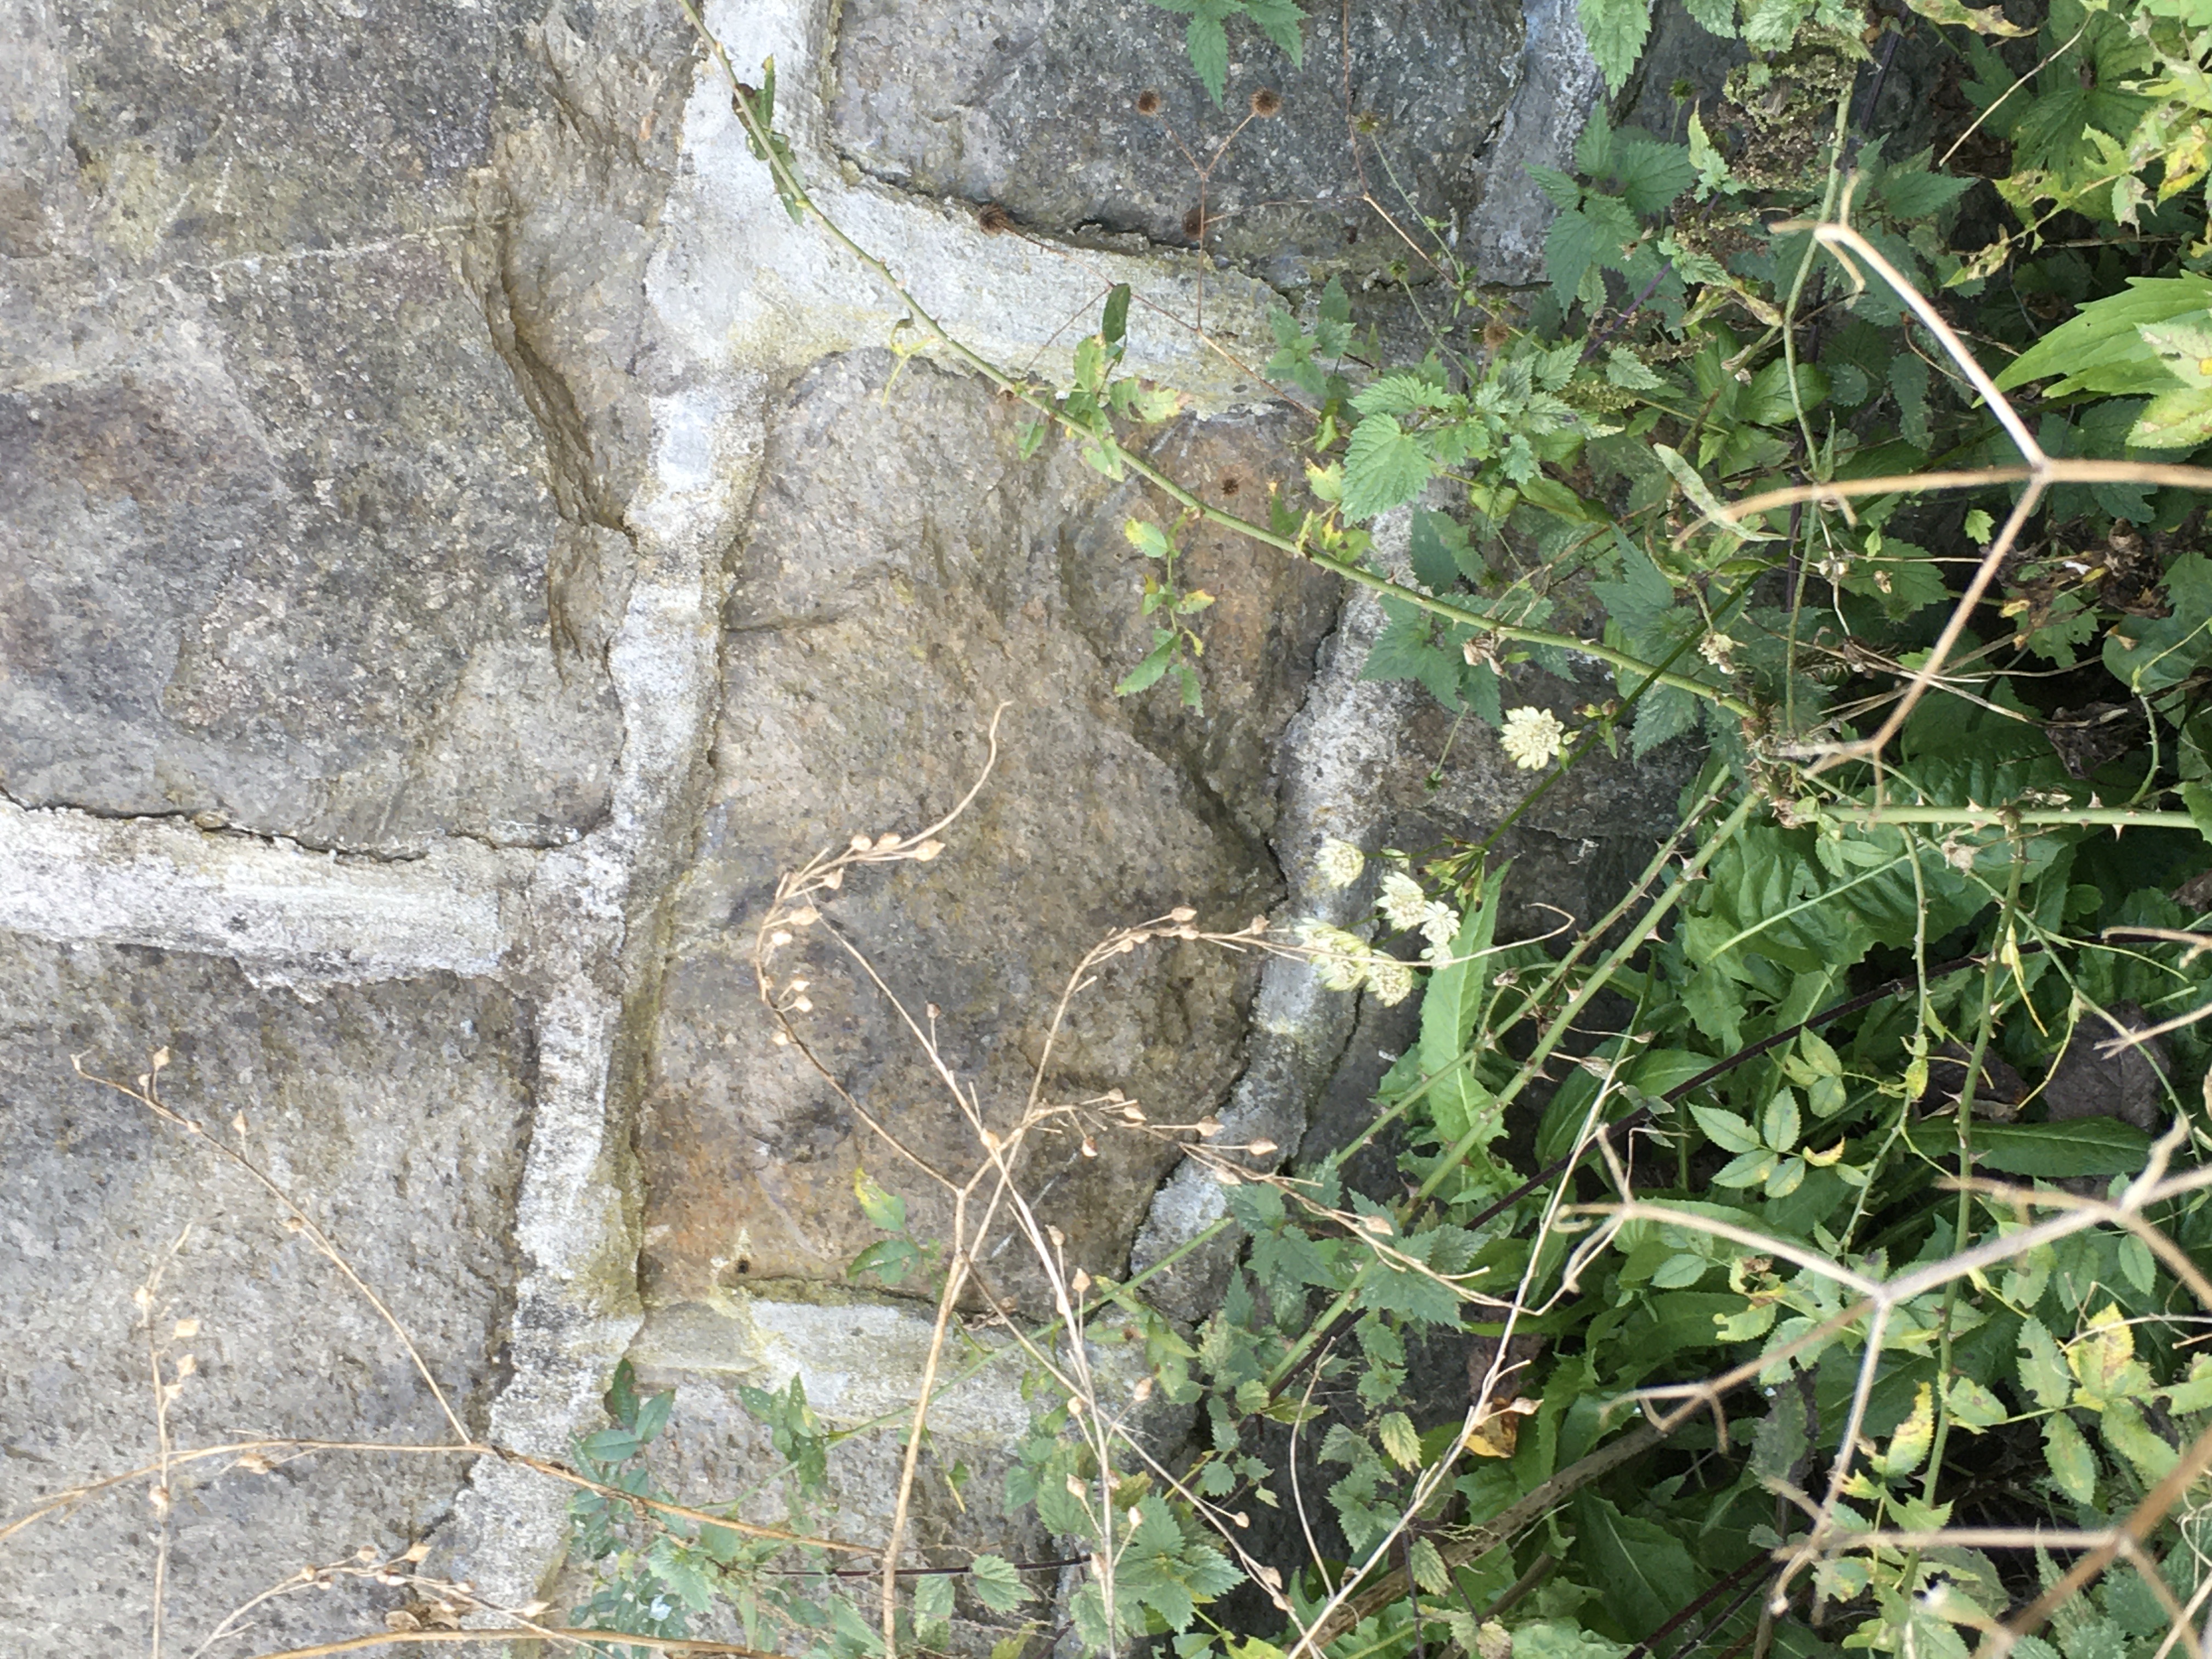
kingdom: Plantae
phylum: Tracheophyta
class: Magnoliopsida
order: Apiales
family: Apiaceae
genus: Astrantia
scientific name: Astrantia major
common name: stjerneskjerm
